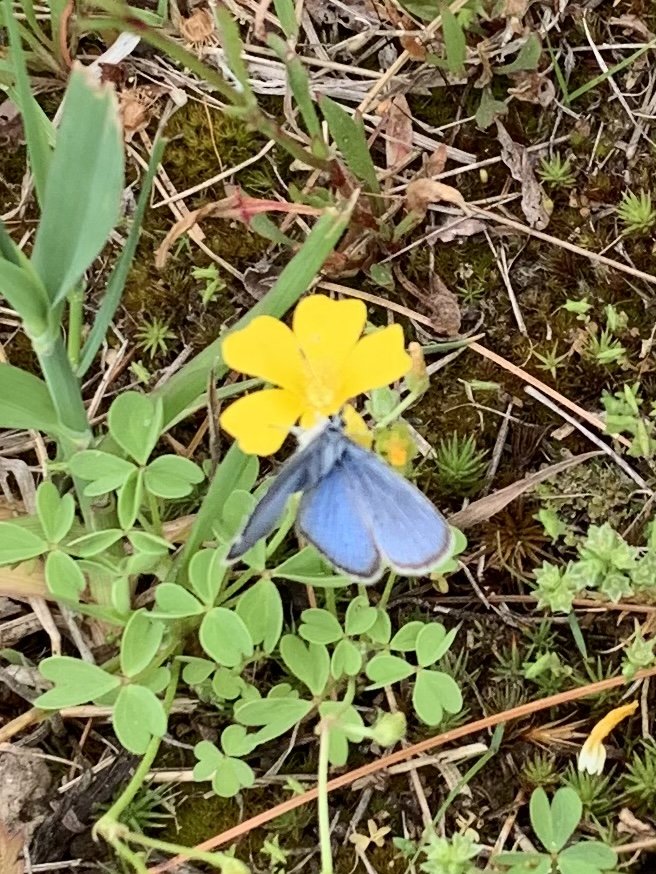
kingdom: Animalia
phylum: Arthropoda
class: Insecta
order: Lepidoptera
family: Lycaenidae
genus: Glaucopsyche
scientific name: Glaucopsyche lygdamus
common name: Silvery Blue
